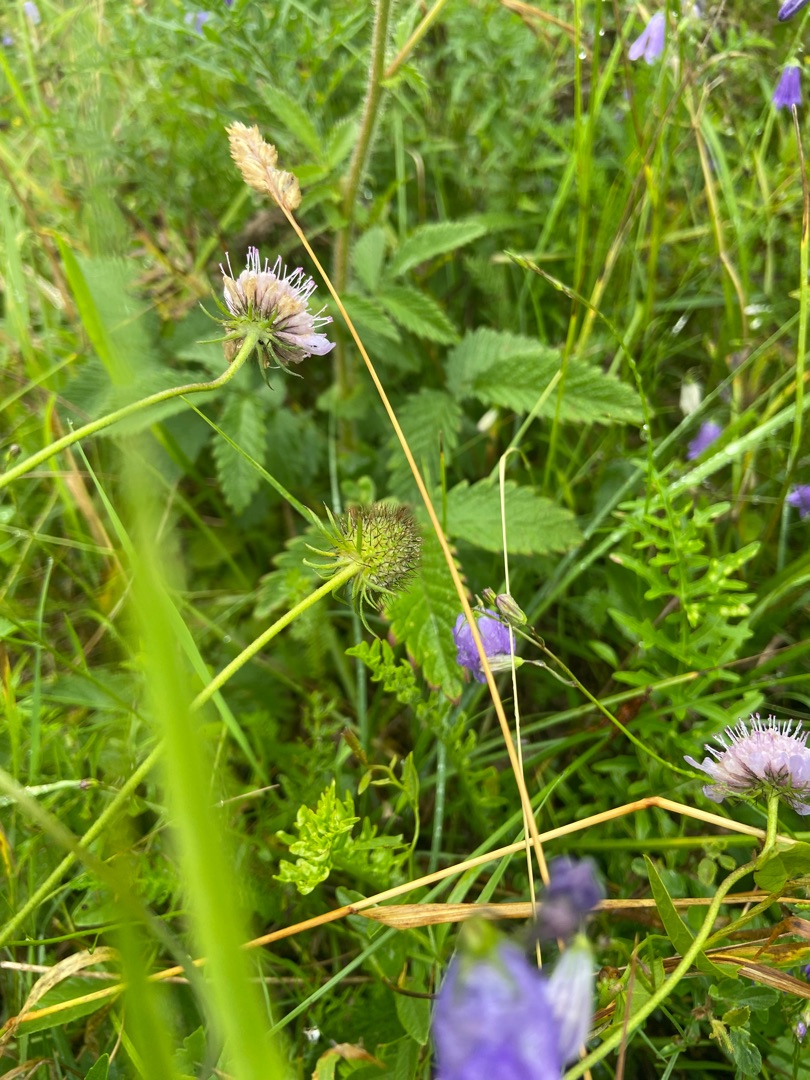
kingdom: Plantae
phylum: Tracheophyta
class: Magnoliopsida
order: Dipsacales
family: Caprifoliaceae
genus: Scabiosa
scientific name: Scabiosa columbaria
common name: Due-skabiose
